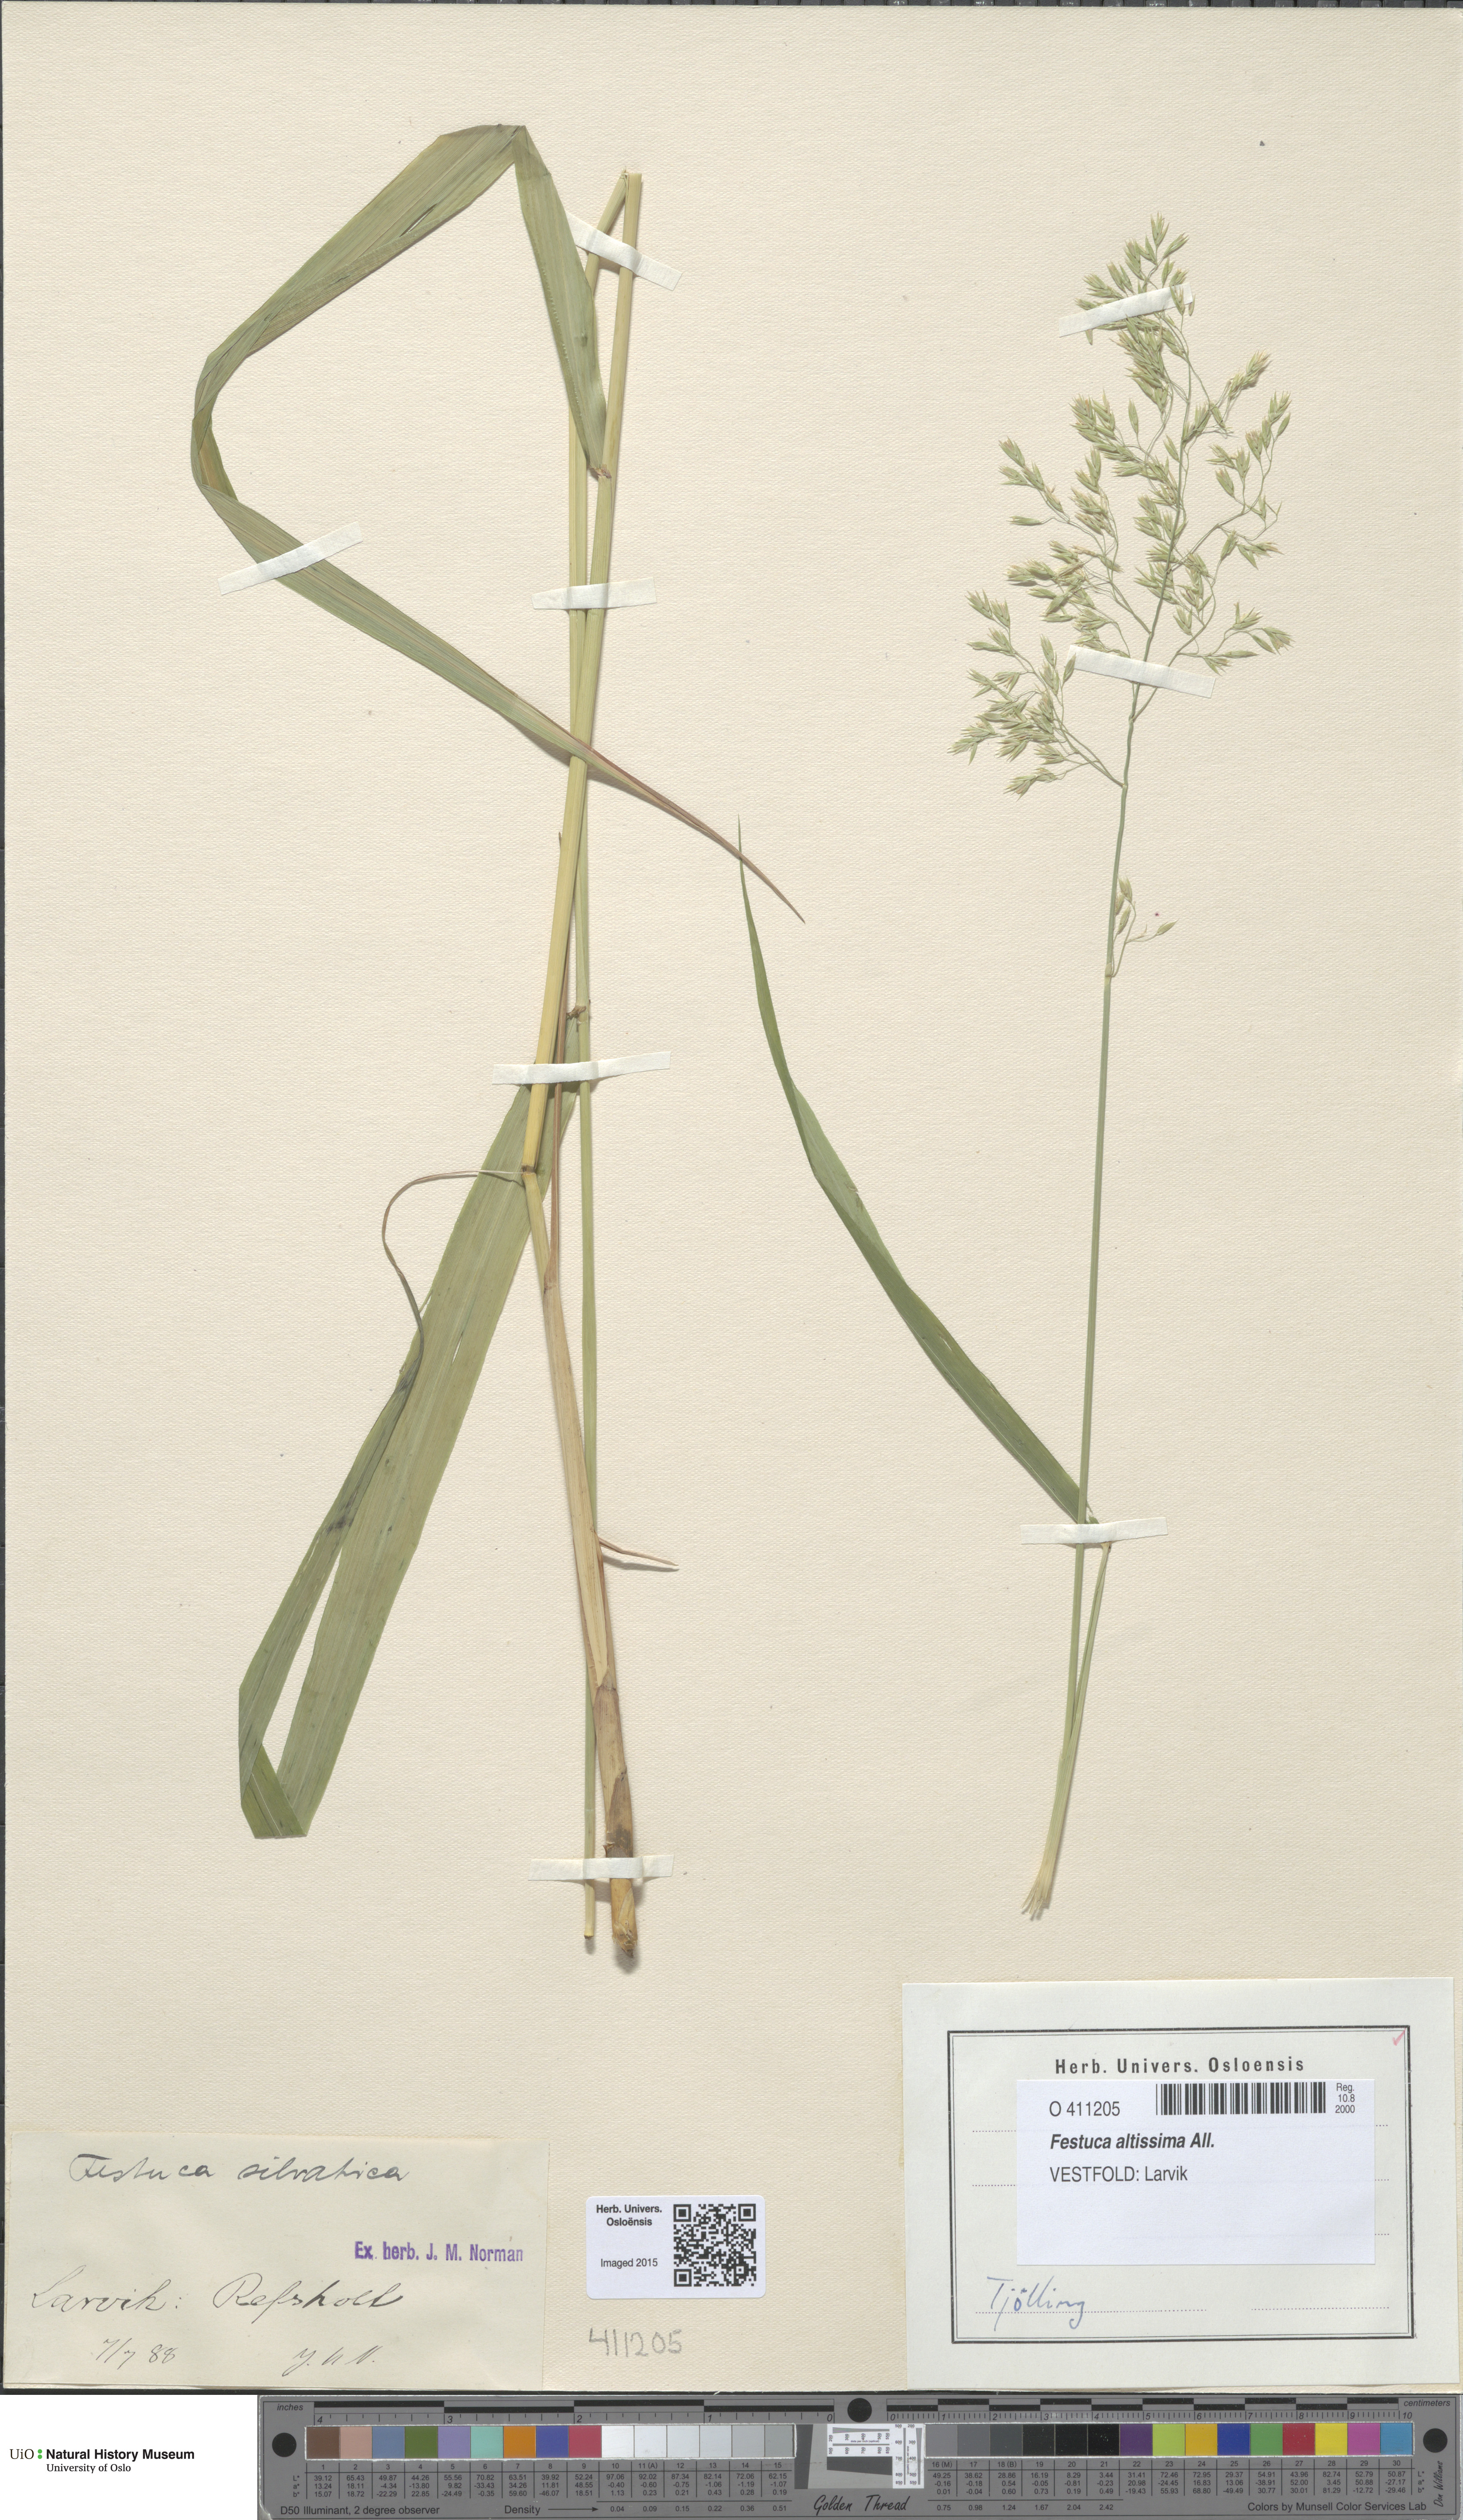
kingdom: Plantae
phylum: Tracheophyta
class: Liliopsida
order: Poales
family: Poaceae
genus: Festuca
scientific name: Festuca altissima
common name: Wood fescue
